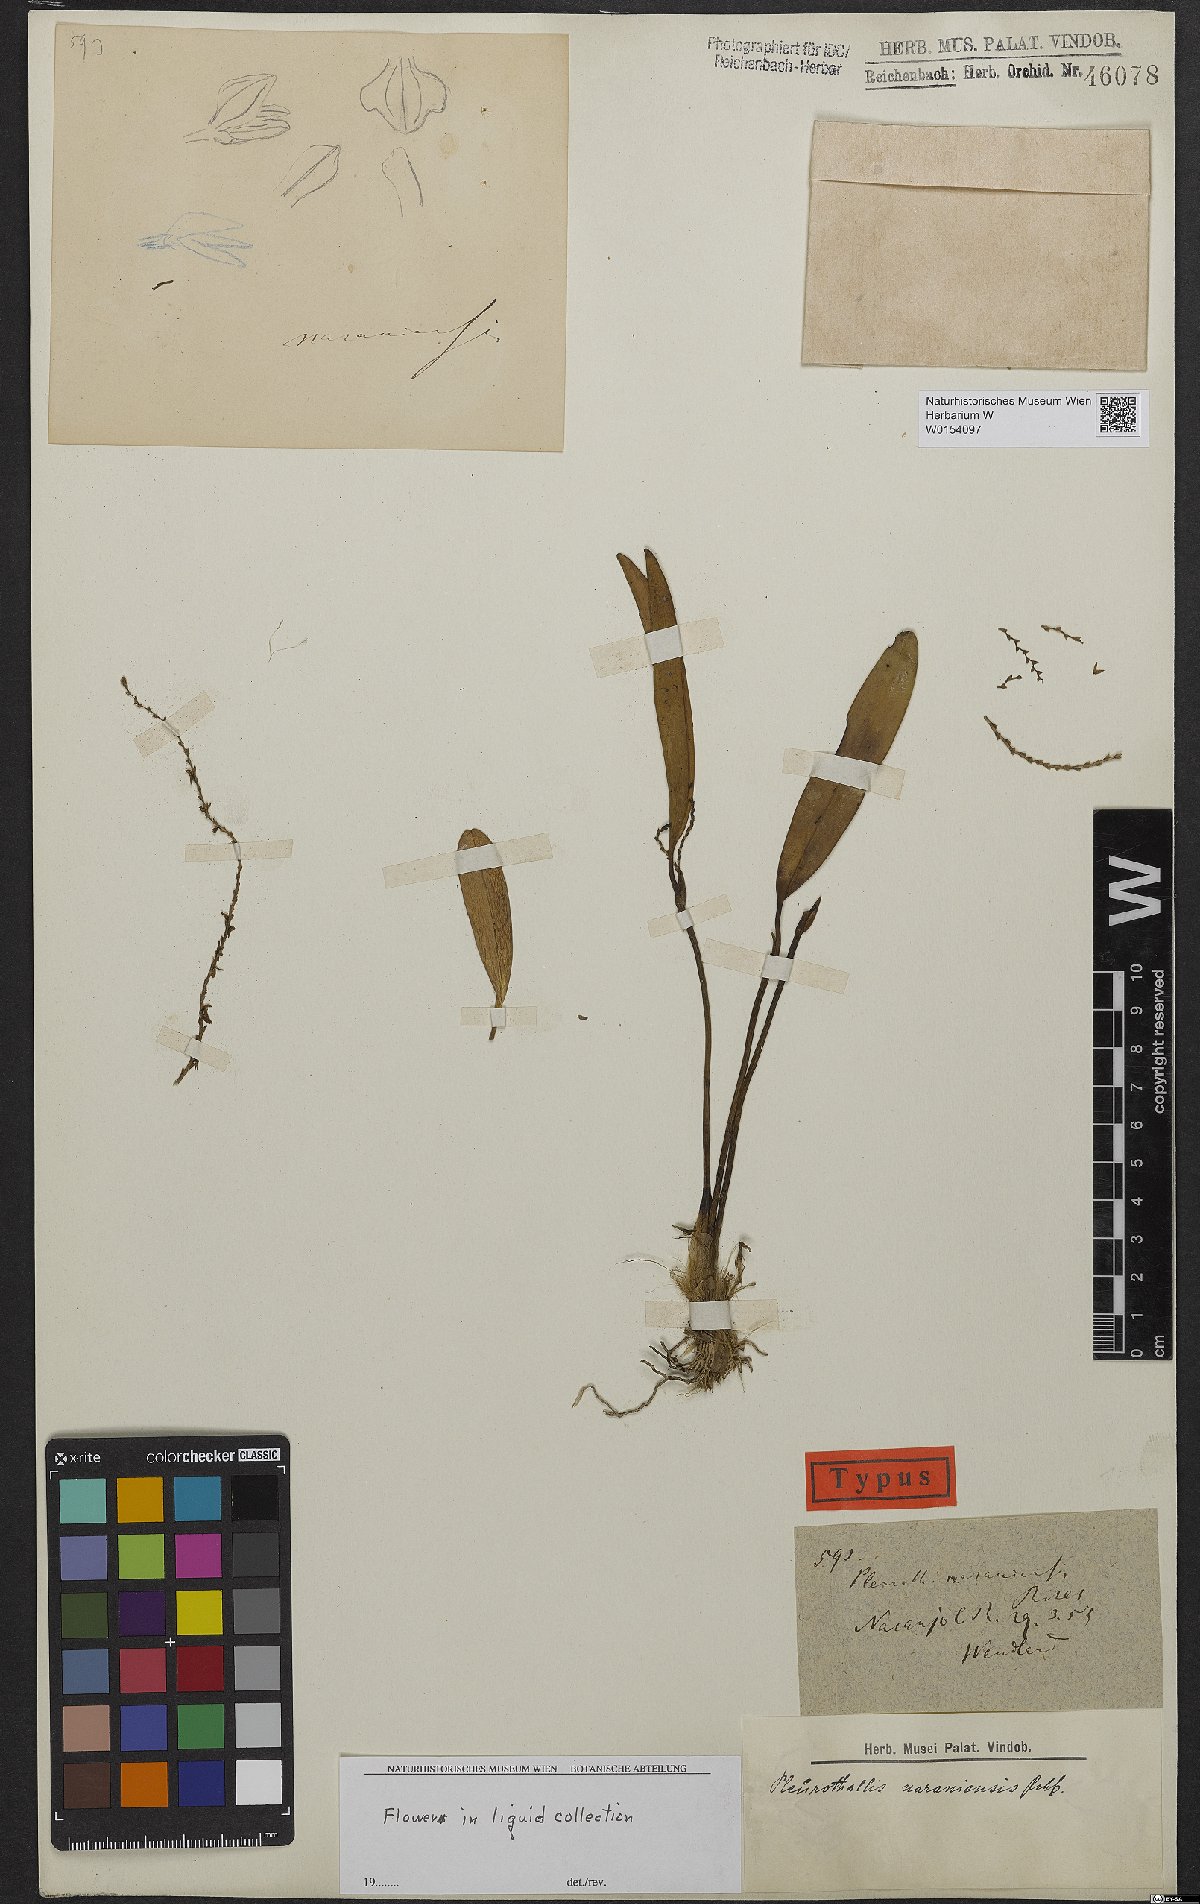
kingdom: Plantae
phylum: Tracheophyta
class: Liliopsida
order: Asparagales
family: Orchidaceae
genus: Stelis
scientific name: Stelis pulchella
